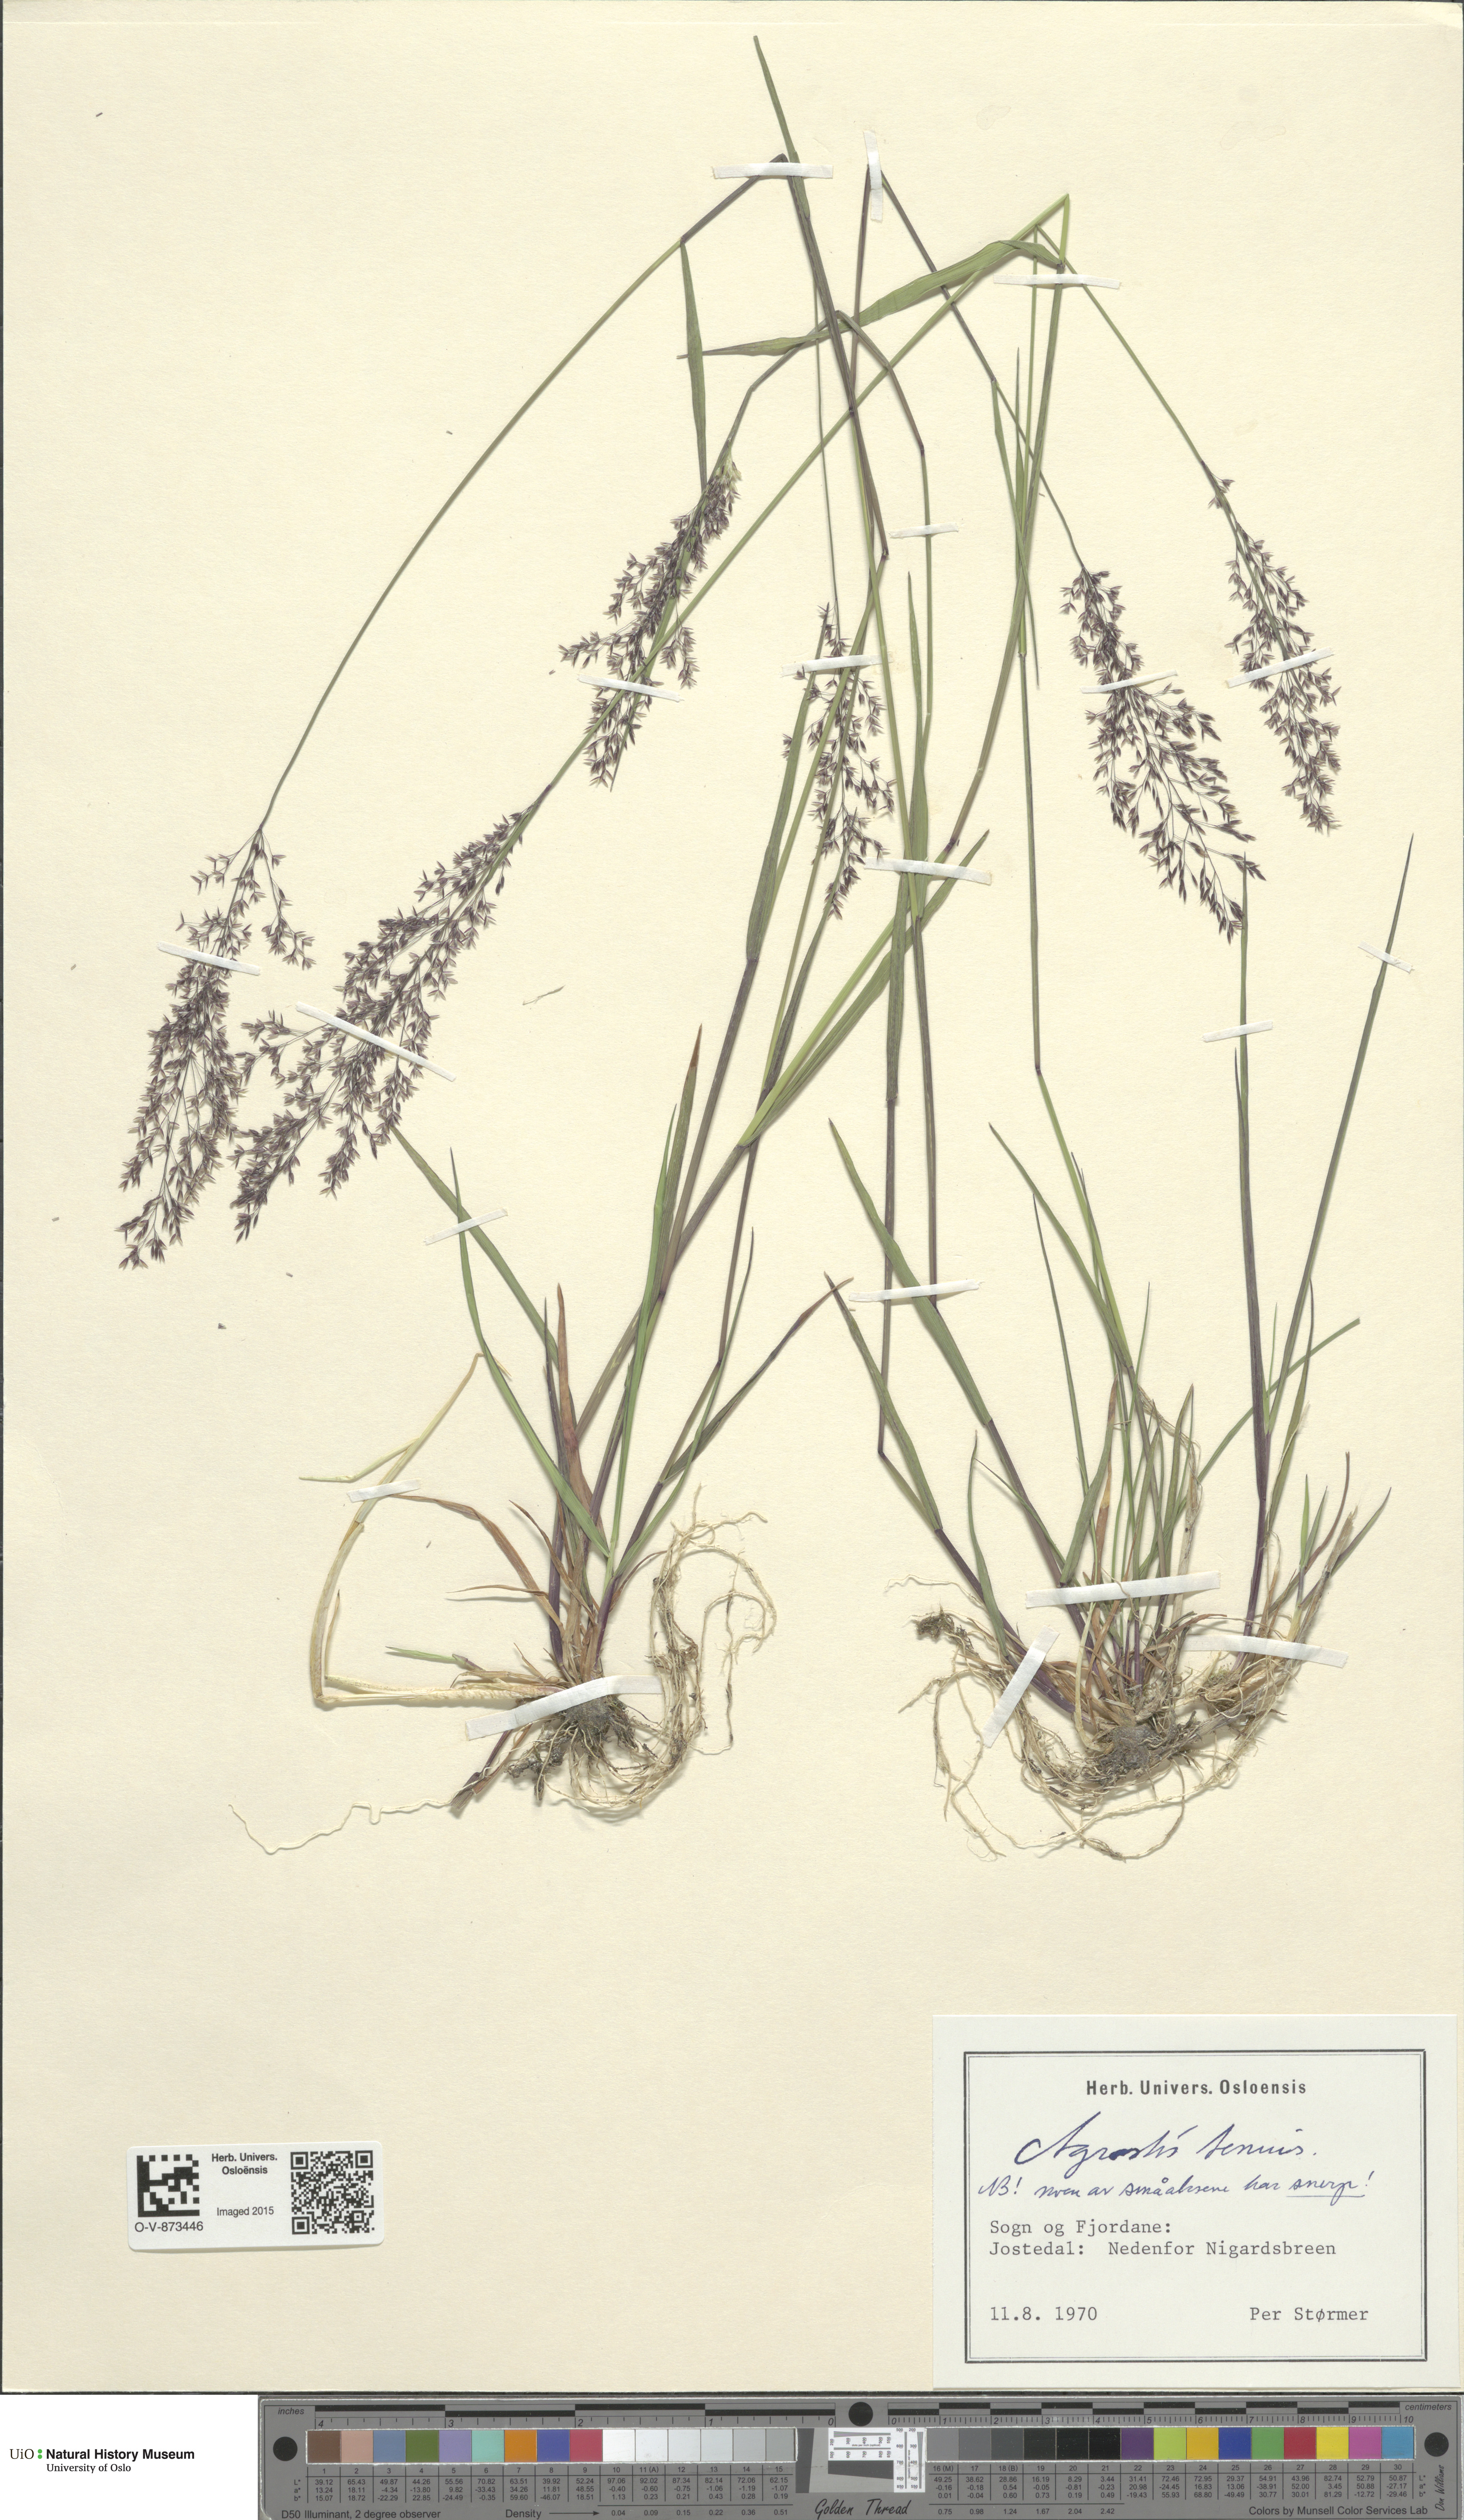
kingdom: Plantae
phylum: Tracheophyta
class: Liliopsida
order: Poales
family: Poaceae
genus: Agrostis
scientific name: Agrostis capillaris
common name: Colonial bentgrass
